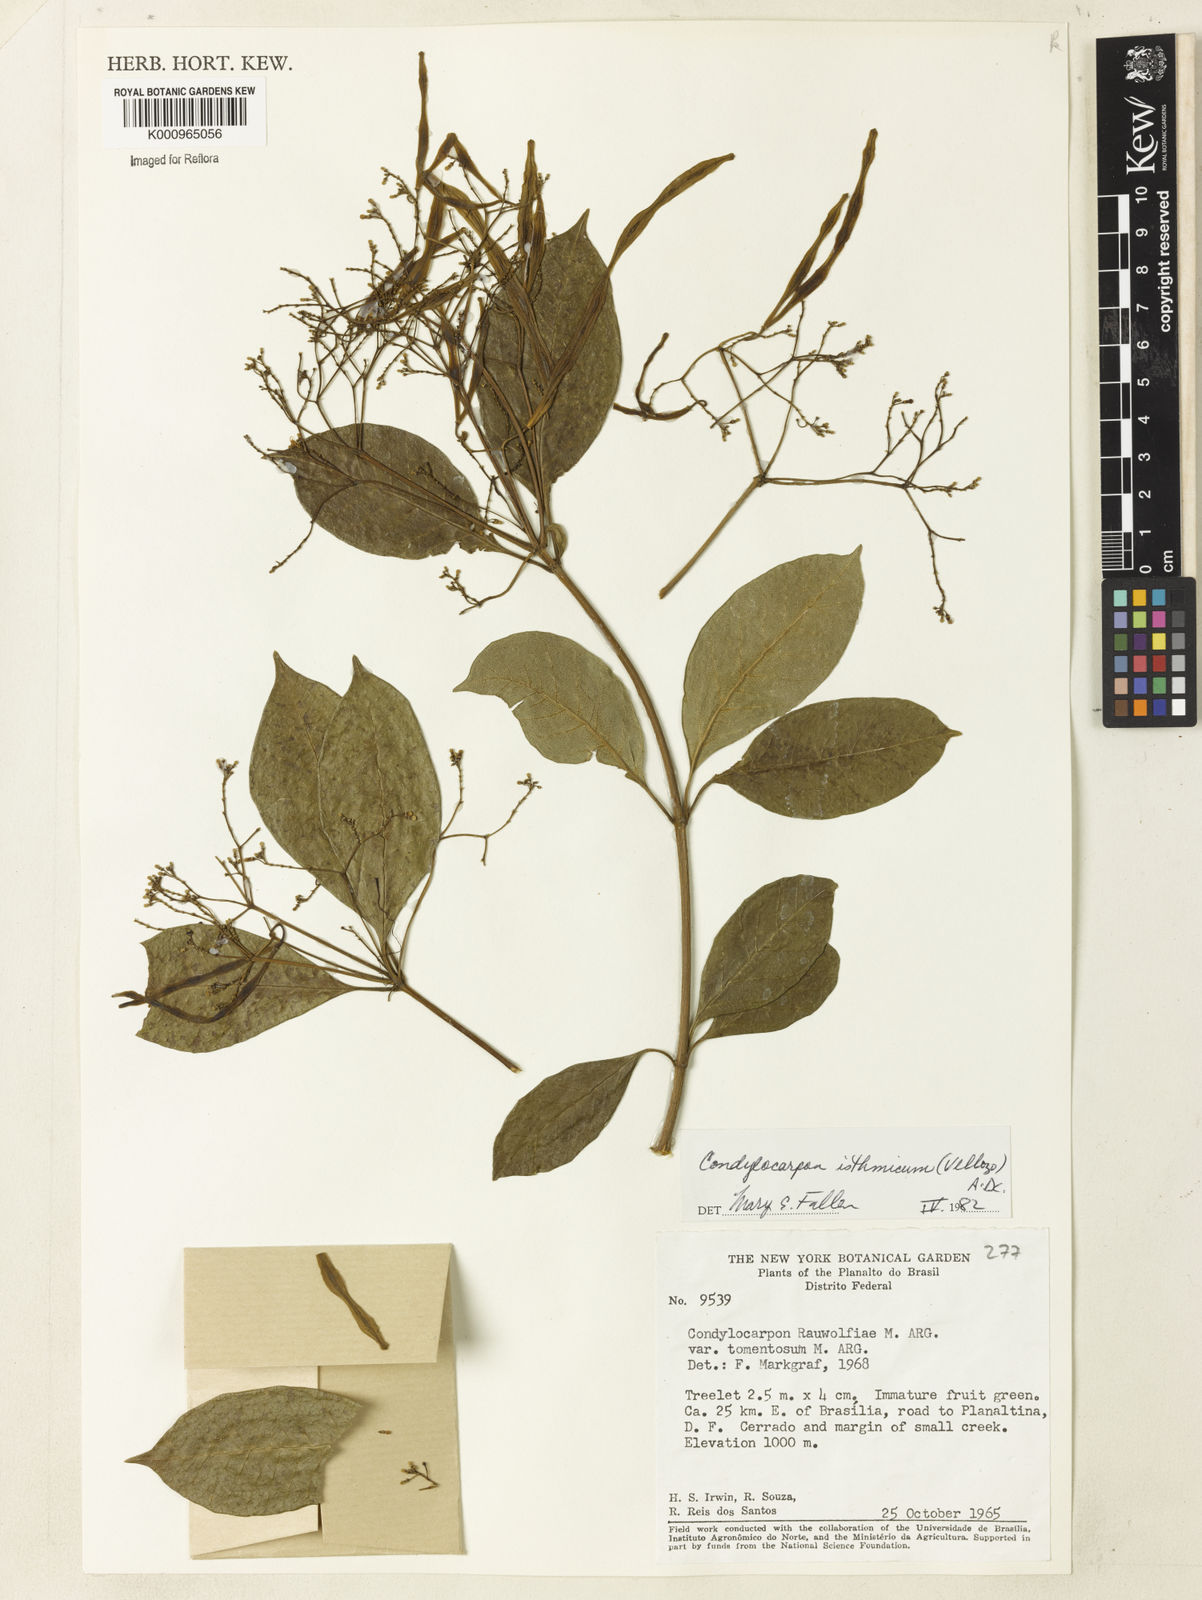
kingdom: Plantae
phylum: Tracheophyta
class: Magnoliopsida
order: Gentianales
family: Apocynaceae
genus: Condylocarpon
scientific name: Condylocarpon isthmicum
